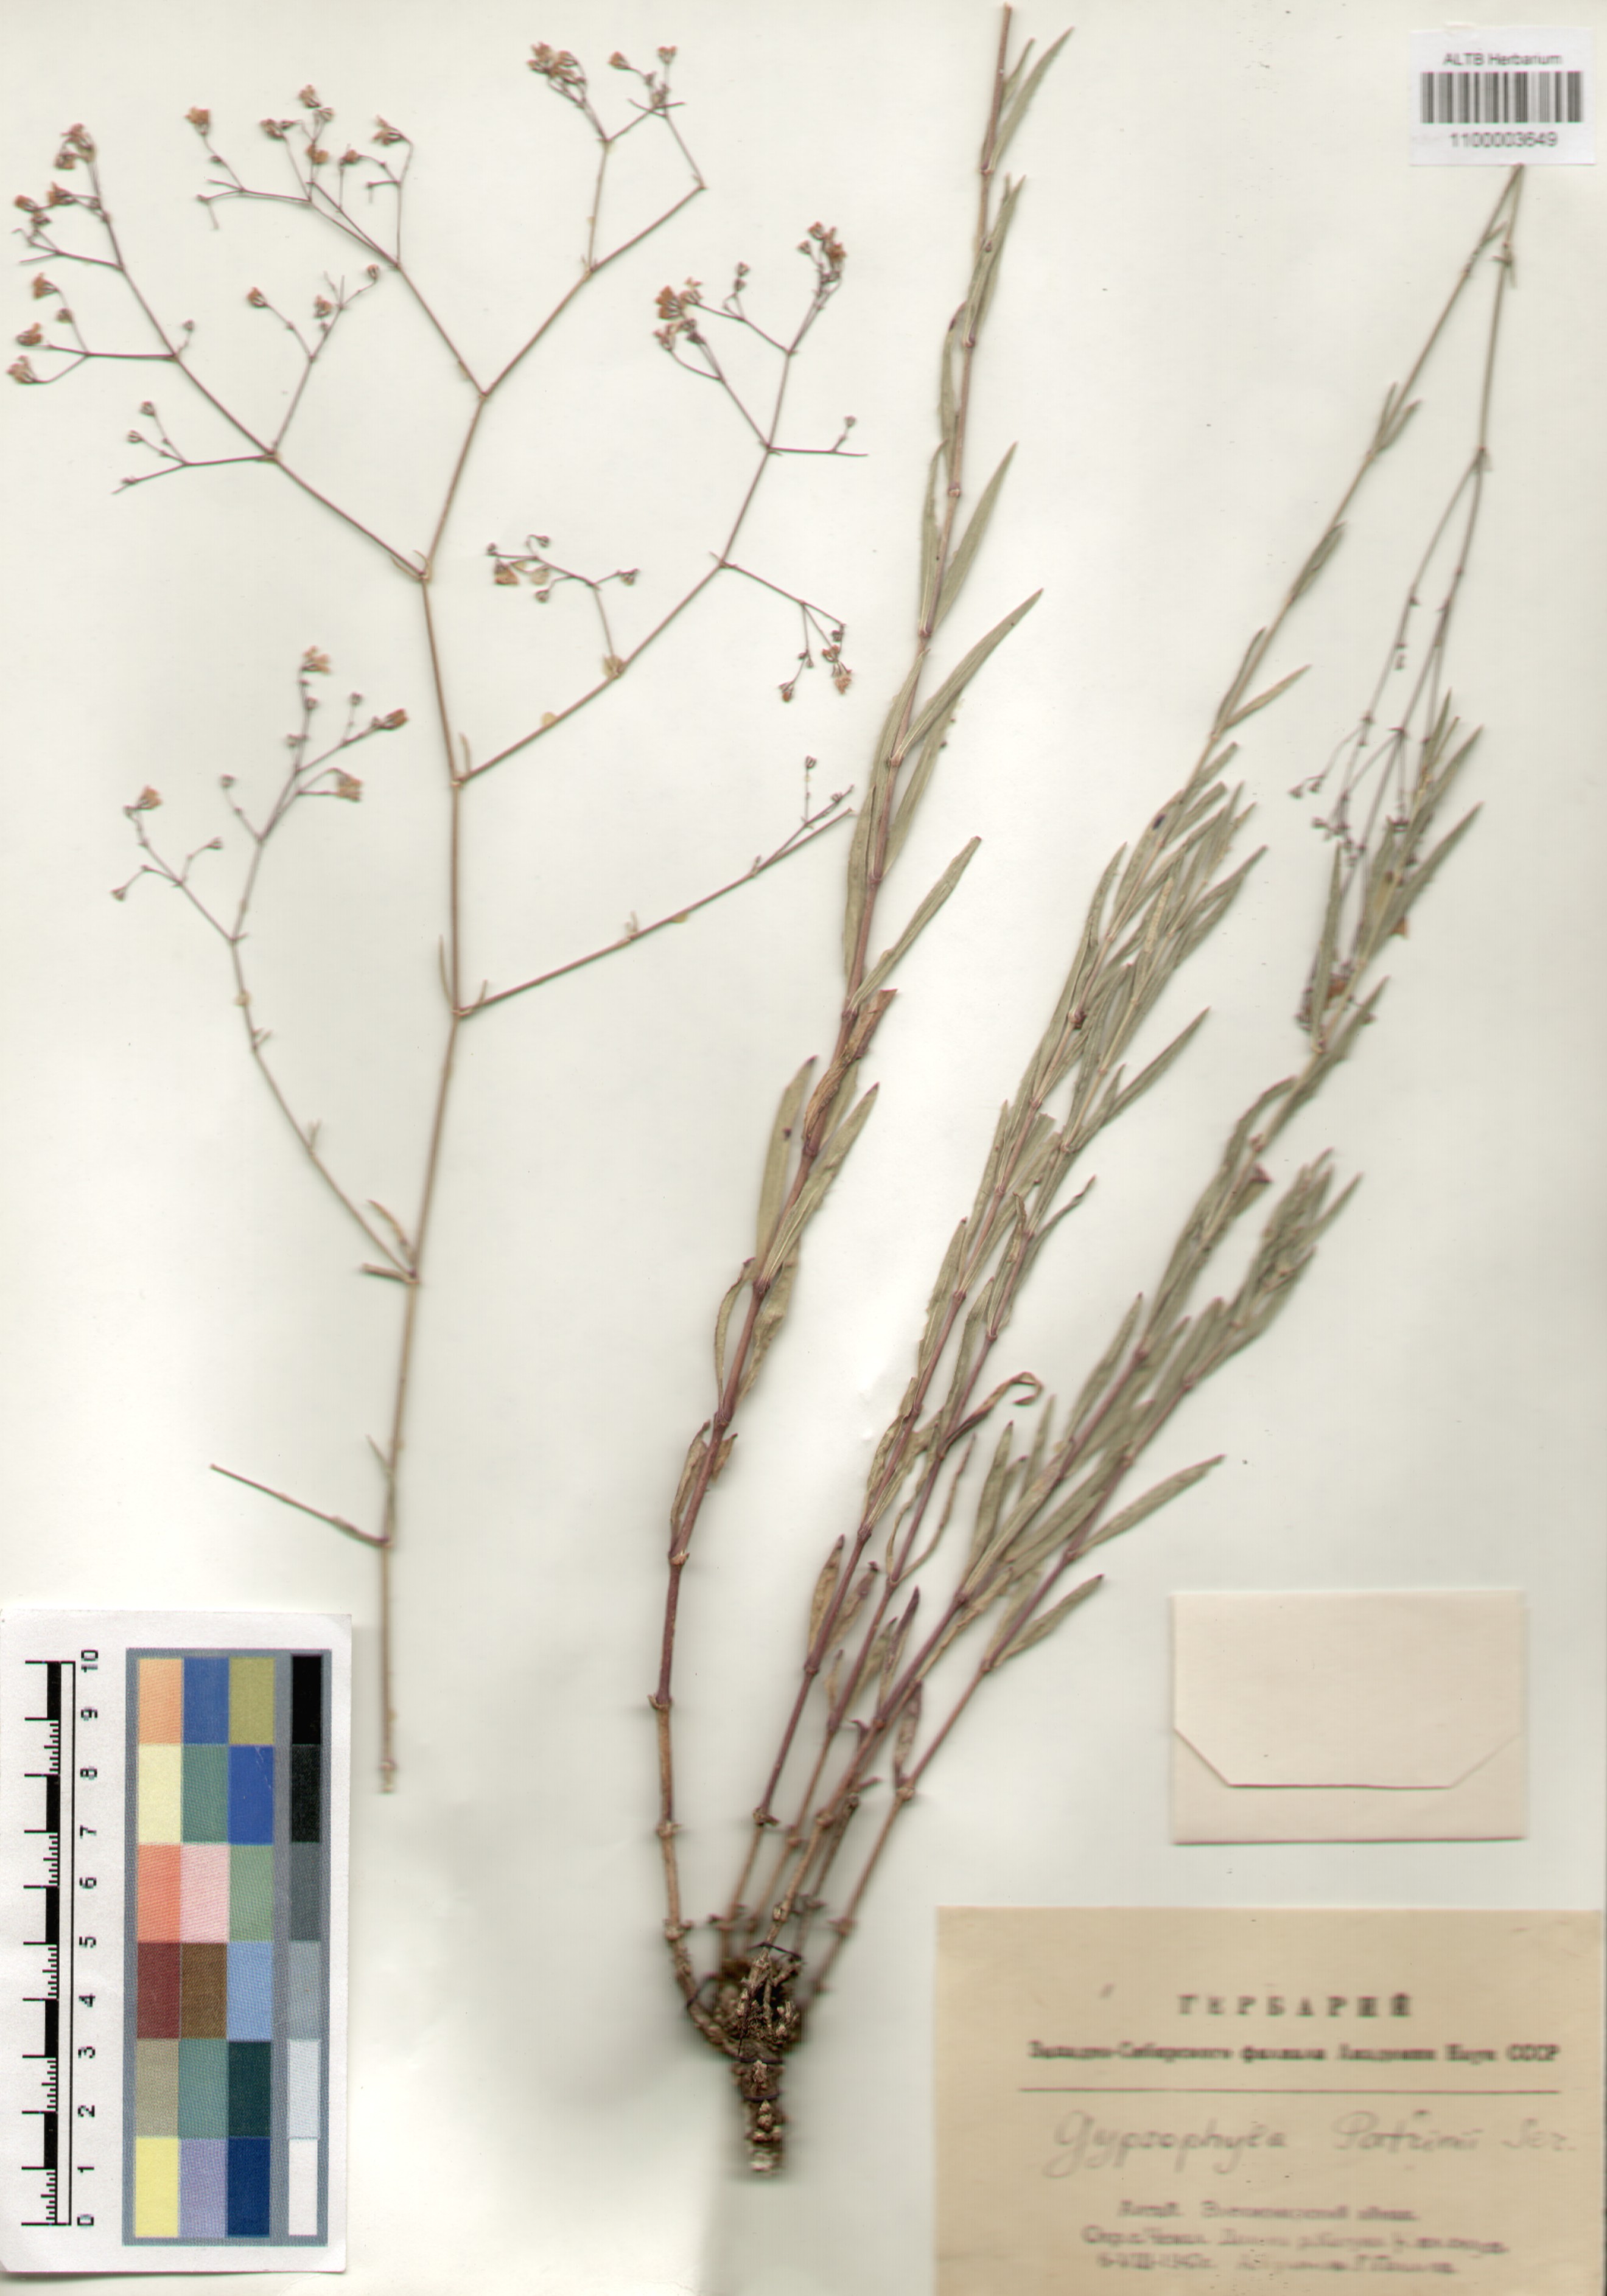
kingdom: Plantae
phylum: Tracheophyta
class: Magnoliopsida
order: Caryophyllales
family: Caryophyllaceae
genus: Gypsophila
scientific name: Gypsophila patrinii
